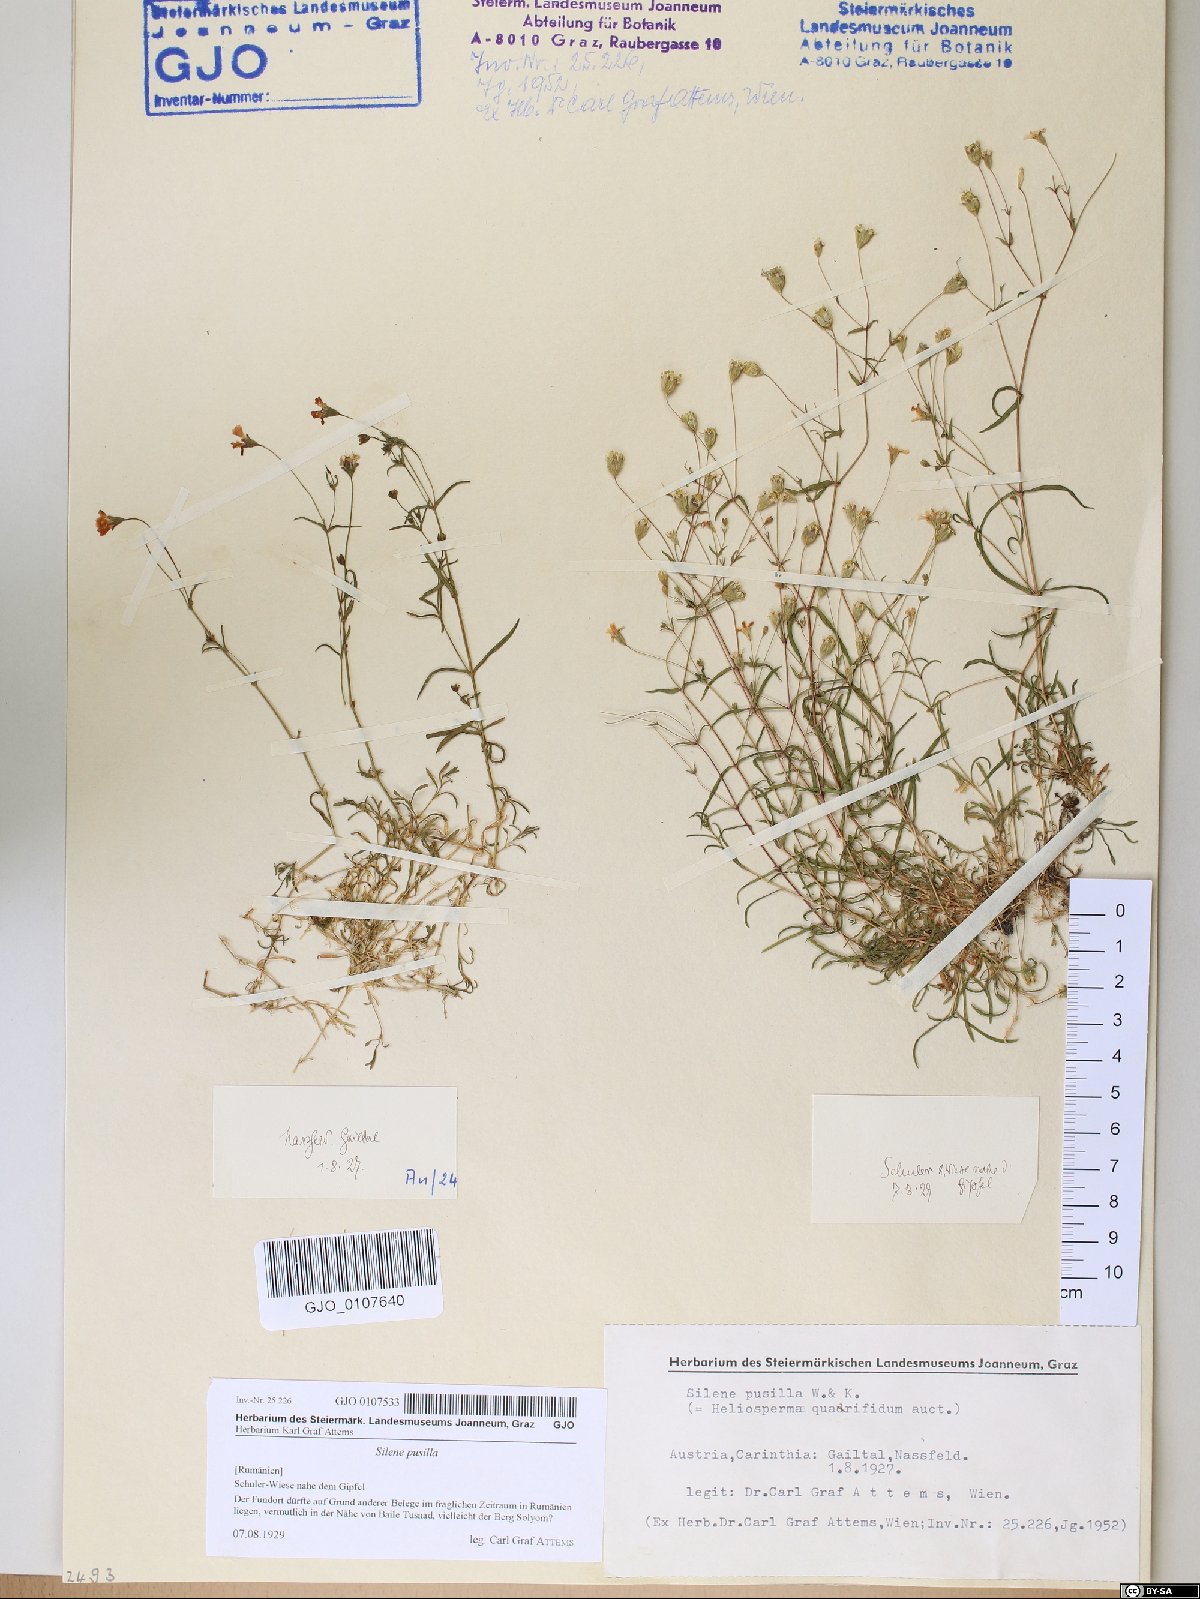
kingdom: Plantae
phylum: Tracheophyta
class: Magnoliopsida
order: Caryophyllales
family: Caryophyllaceae
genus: Heliosperma
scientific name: Heliosperma pusillum
